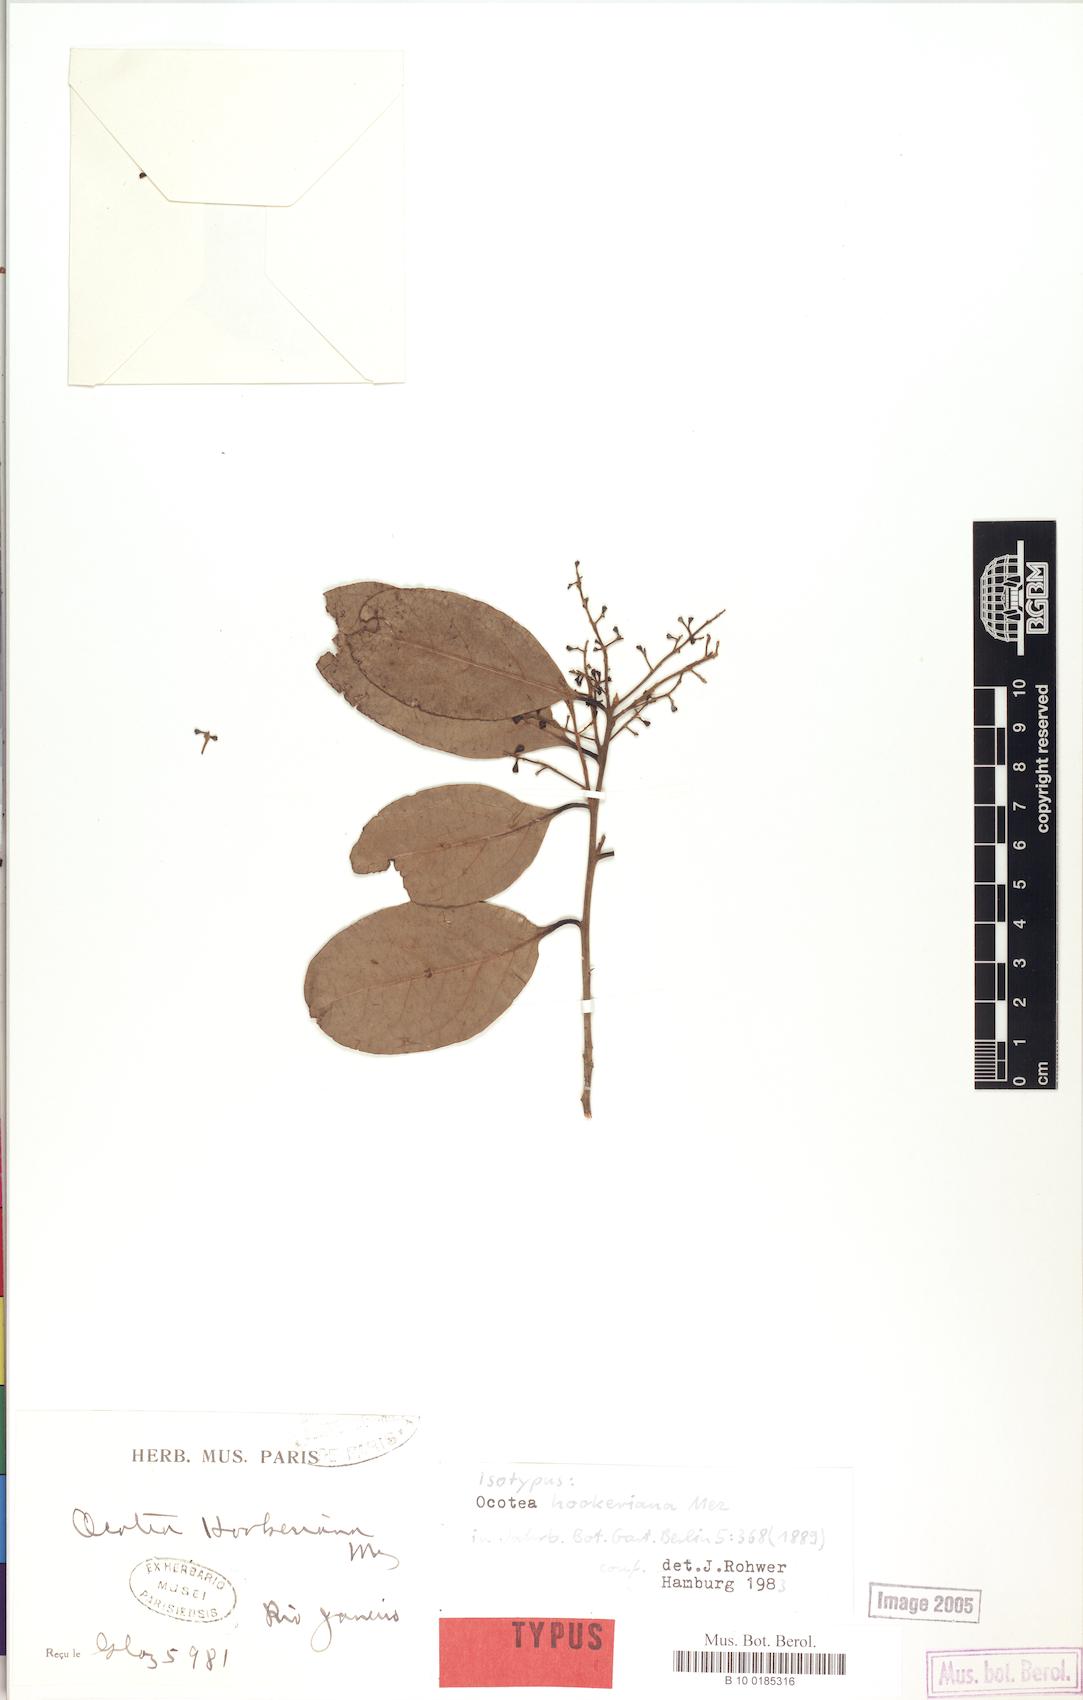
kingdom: Plantae
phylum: Tracheophyta
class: Magnoliopsida
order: Laurales
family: Lauraceae
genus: Mezilaurus
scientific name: Mezilaurus ita-uba
